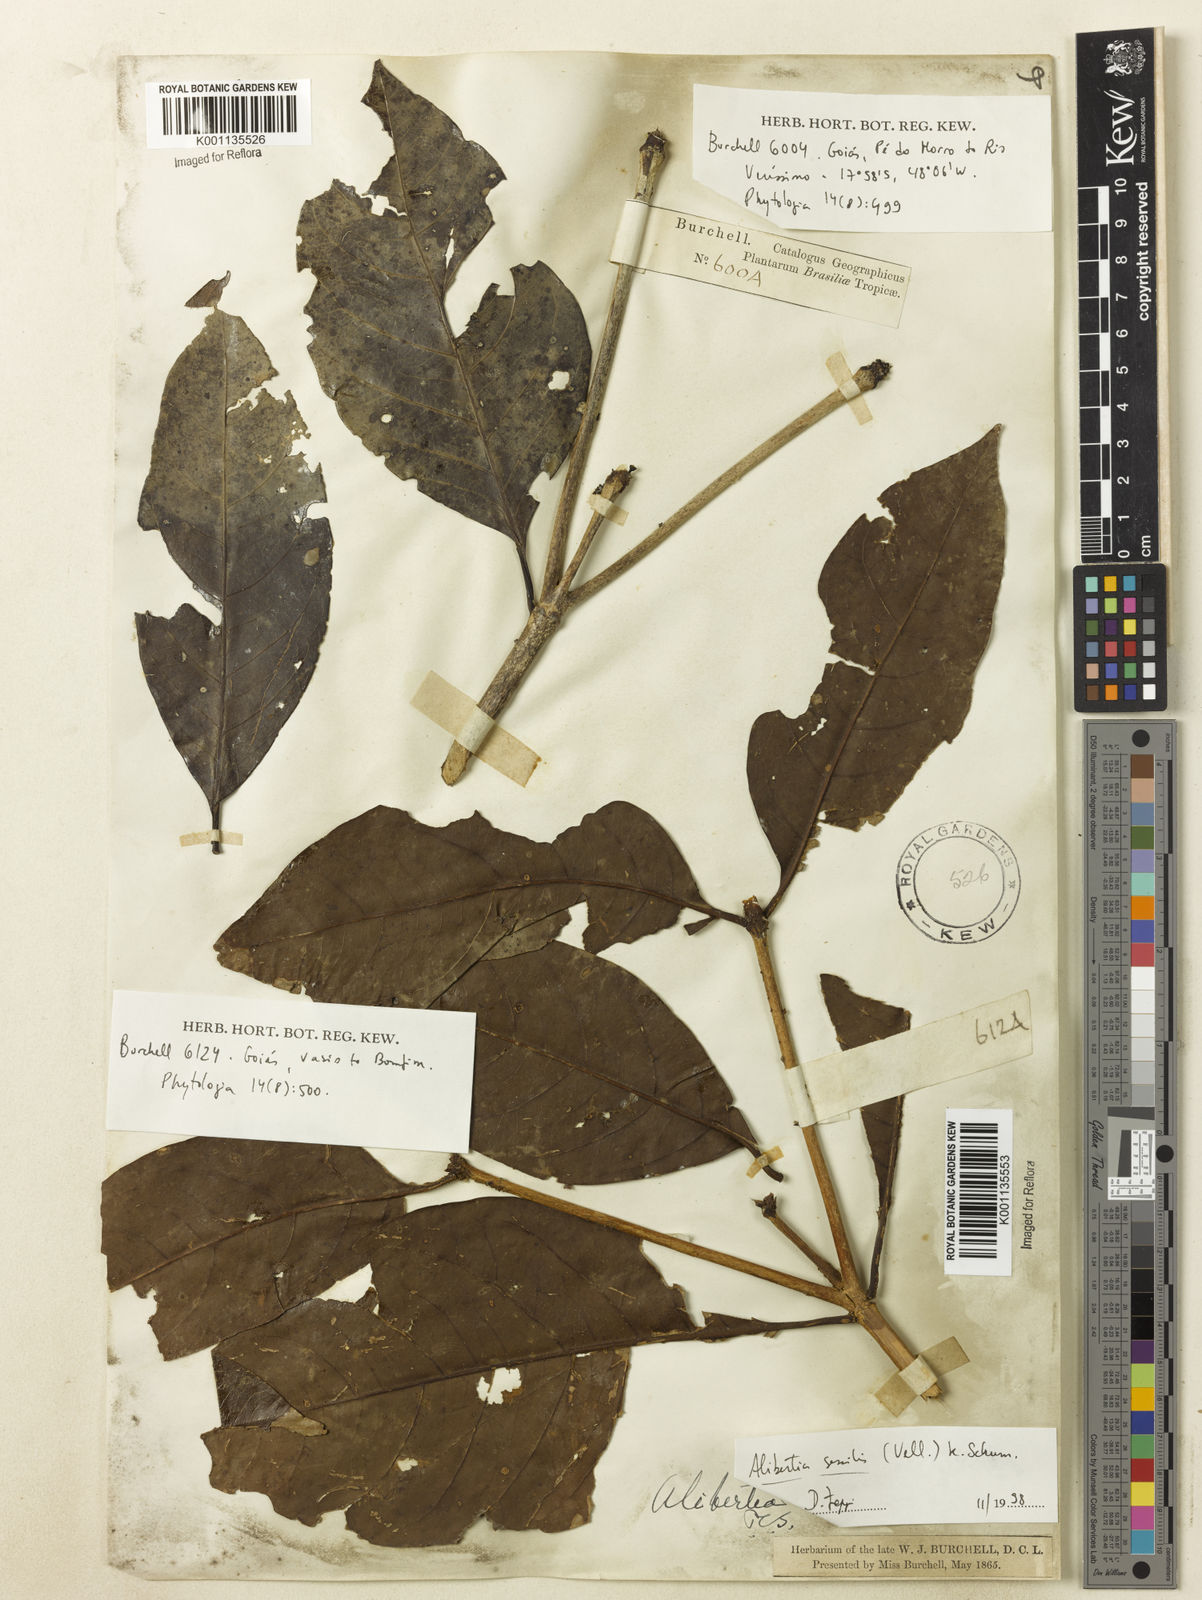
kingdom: Plantae
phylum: Tracheophyta
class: Magnoliopsida
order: Gentianales
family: Rubiaceae
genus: Cordiera
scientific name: Cordiera sessilis
